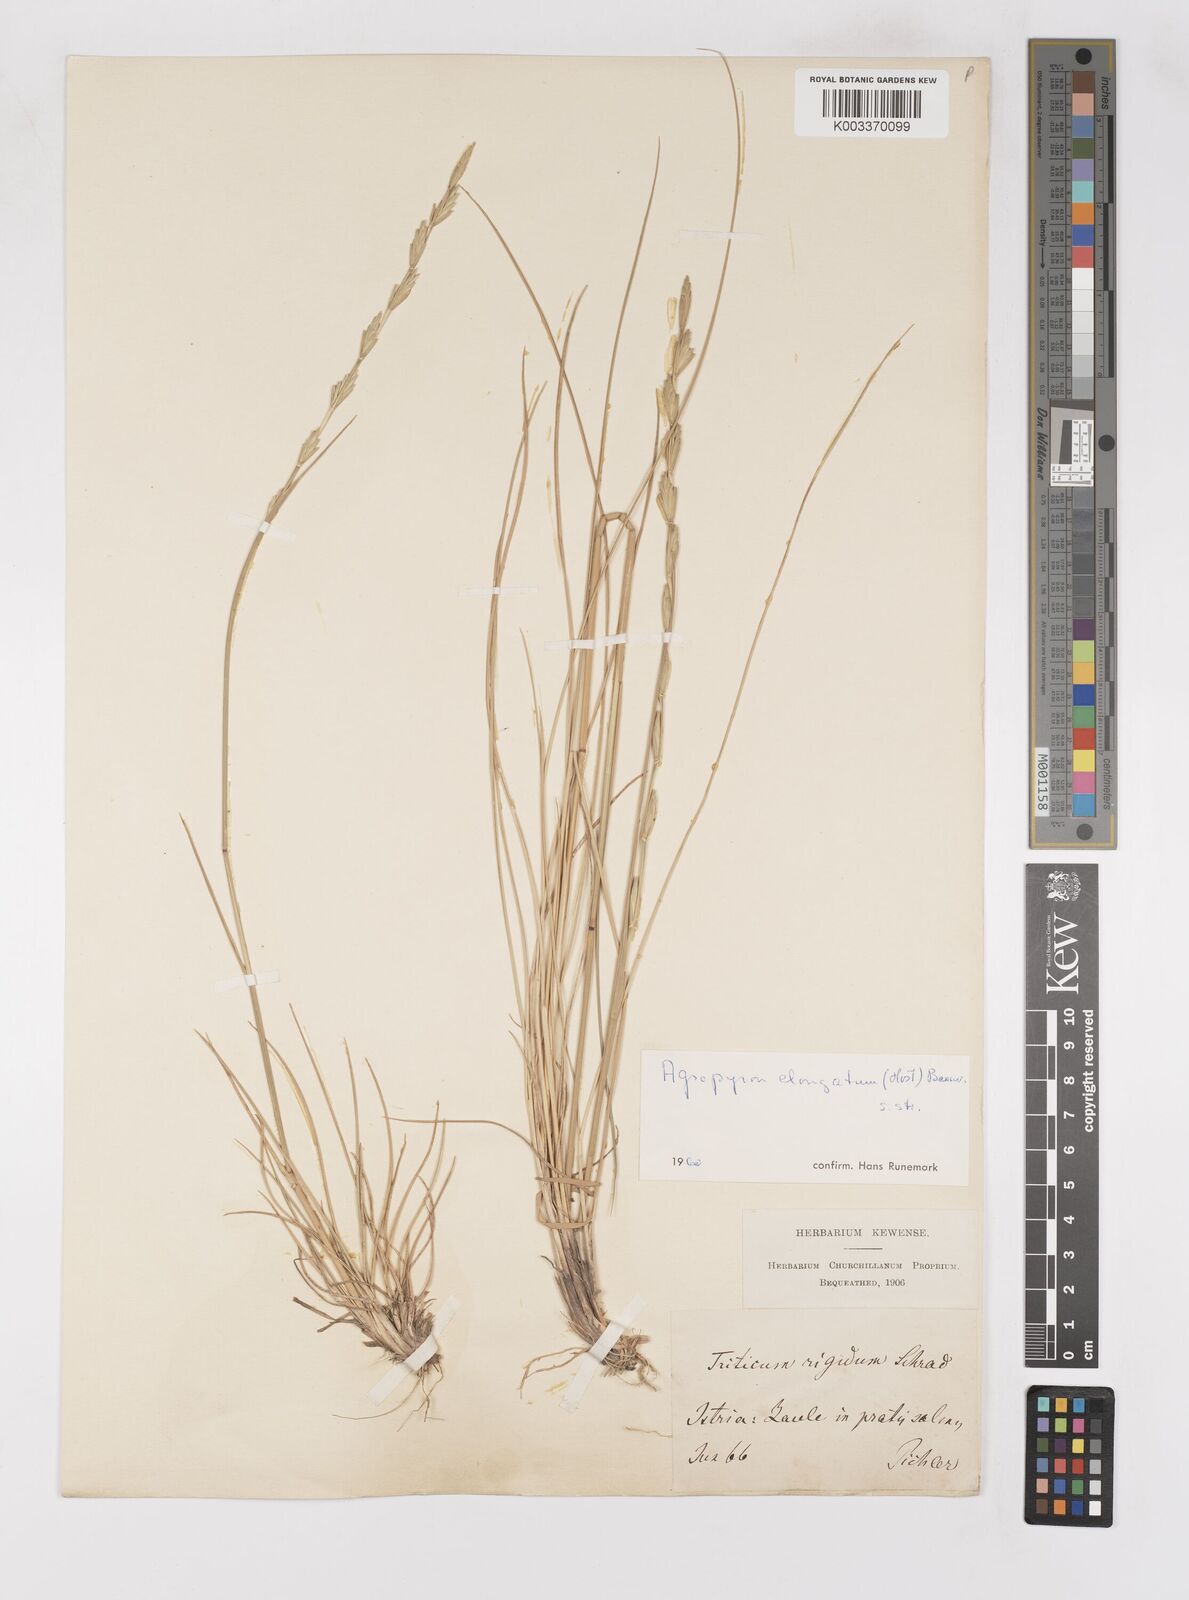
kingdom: Plantae
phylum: Tracheophyta
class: Liliopsida
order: Poales
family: Poaceae
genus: Thinopyrum
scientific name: Thinopyrum elongatum
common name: Tall wheatgrass
